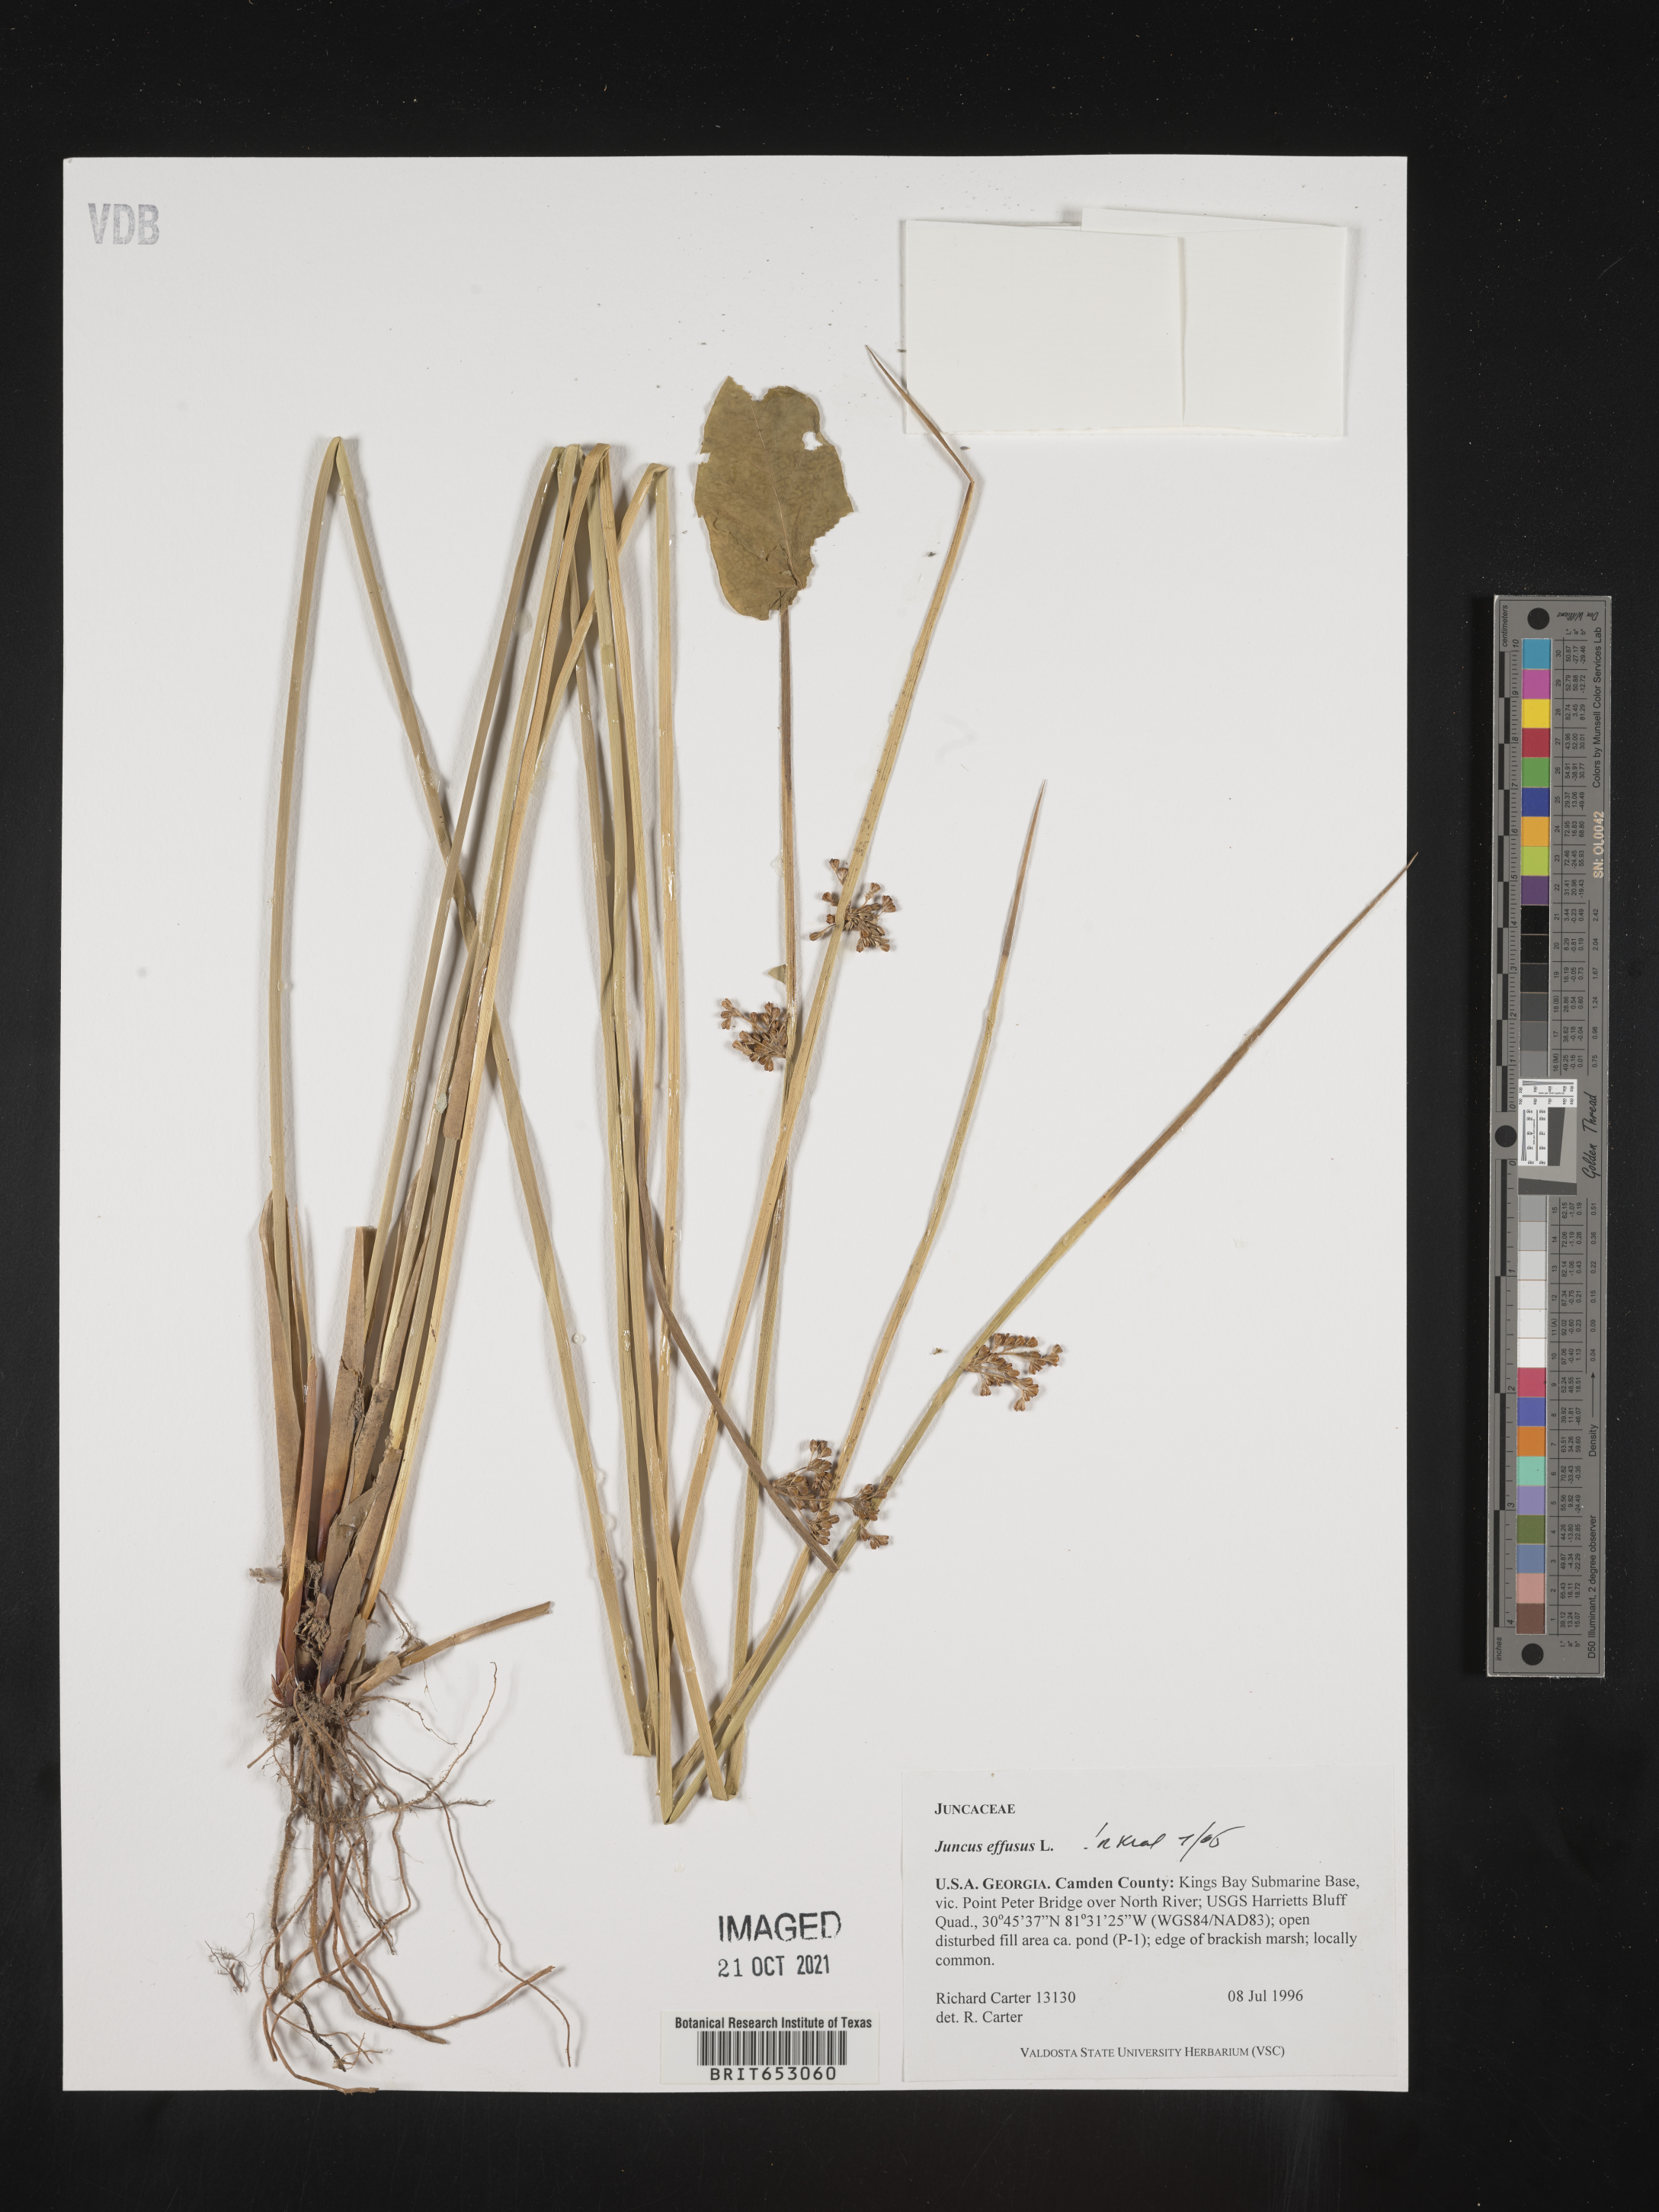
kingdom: Plantae
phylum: Tracheophyta
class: Liliopsida
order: Poales
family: Juncaceae
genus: Juncus
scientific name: Juncus effusus
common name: Soft rush
